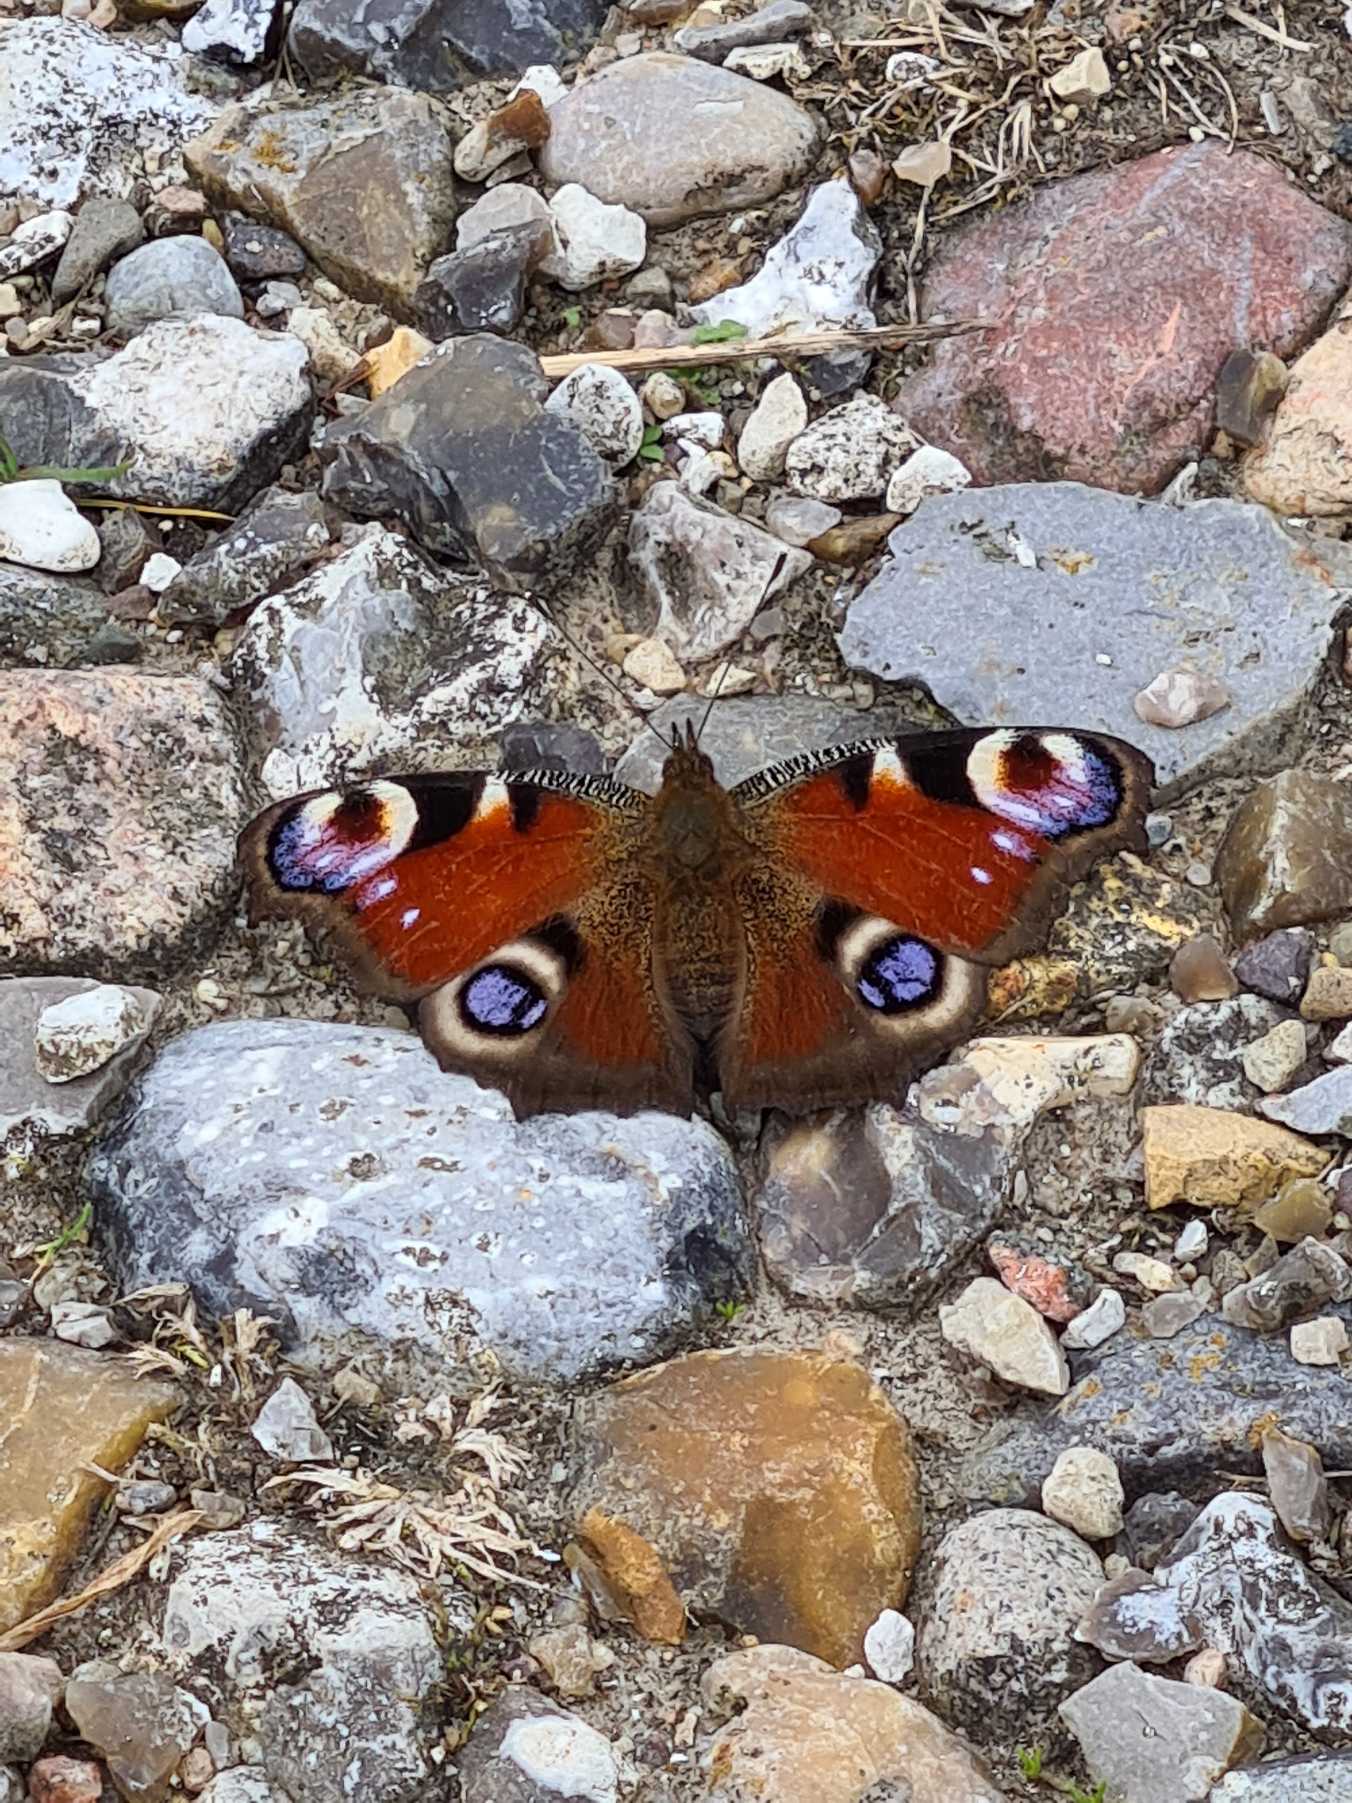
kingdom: Animalia
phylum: Arthropoda
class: Insecta
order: Lepidoptera
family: Nymphalidae
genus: Aglais
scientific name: Aglais io
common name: Dagpåfugleøje
